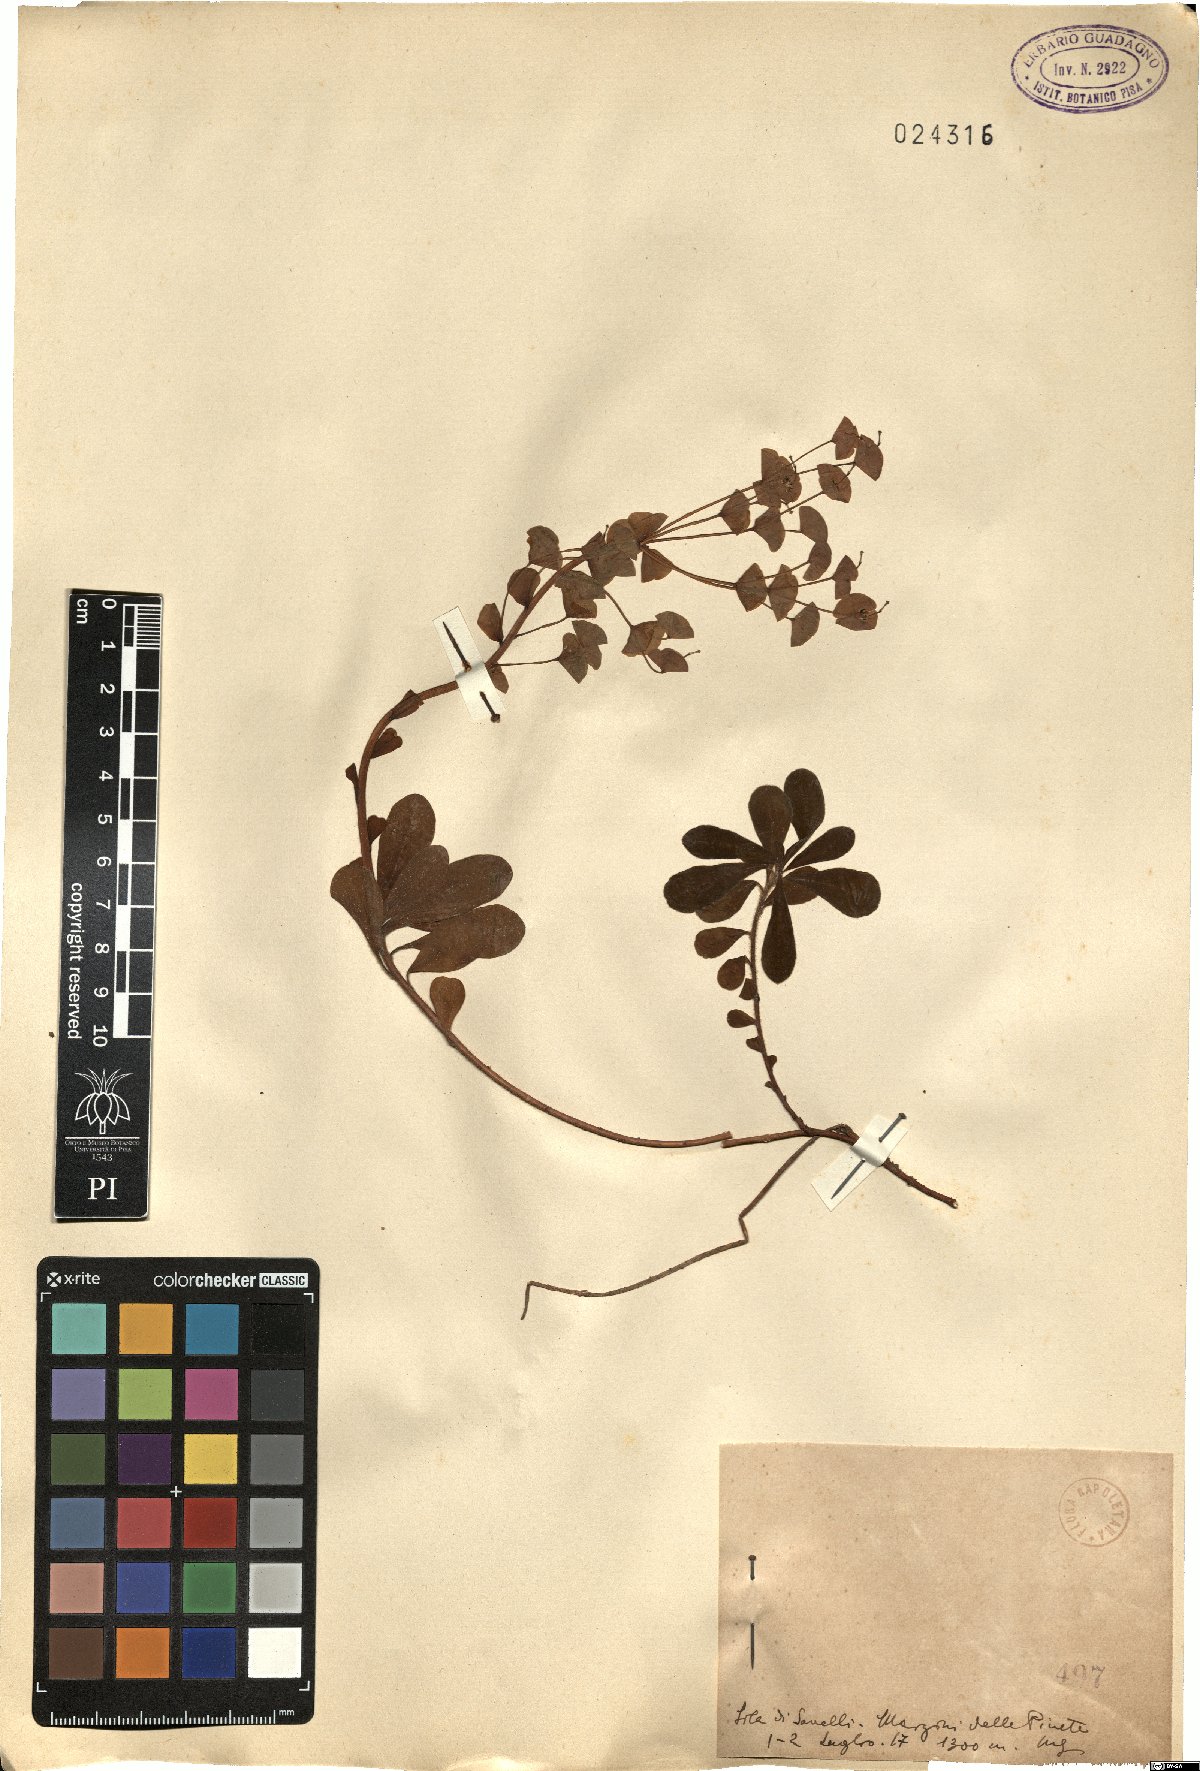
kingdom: Plantae
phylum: Tracheophyta
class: Magnoliopsida
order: Malpighiales
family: Euphorbiaceae
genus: Euphorbia
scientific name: Euphorbia
